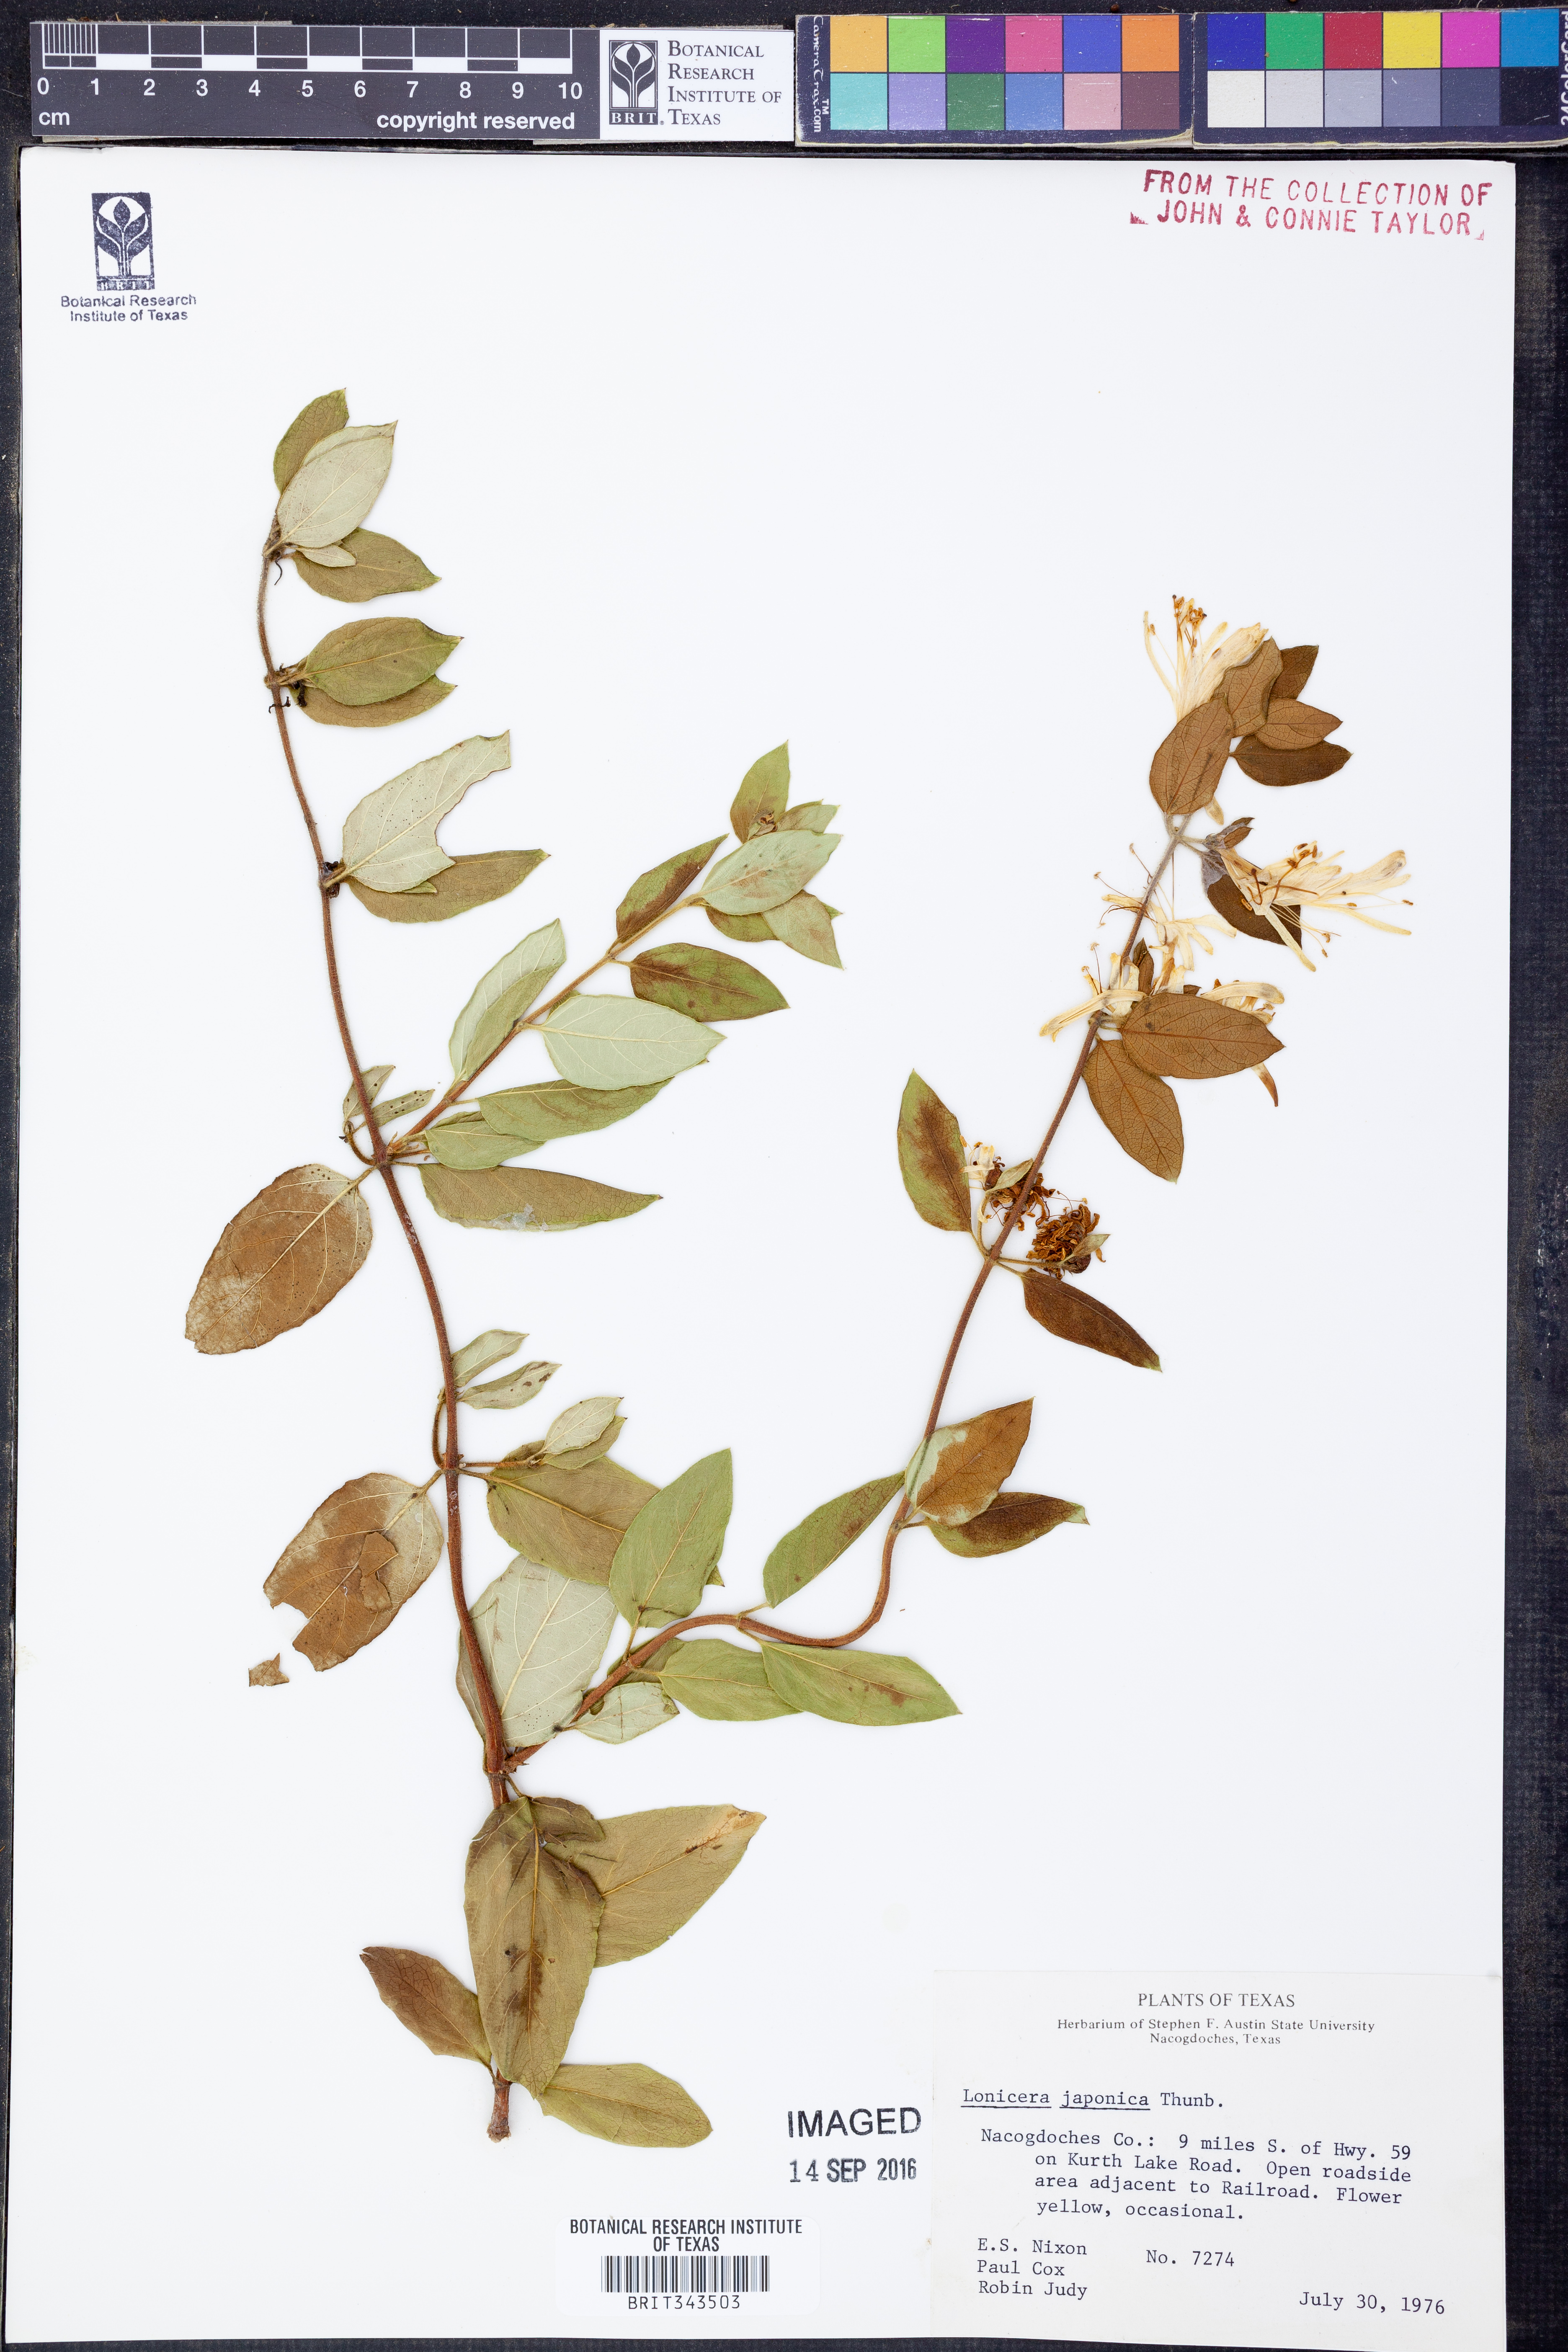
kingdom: Plantae
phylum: Tracheophyta
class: Magnoliopsida
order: Dipsacales
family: Caprifoliaceae
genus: Lonicera
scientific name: Lonicera japonica
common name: Japanese honeysuckle
